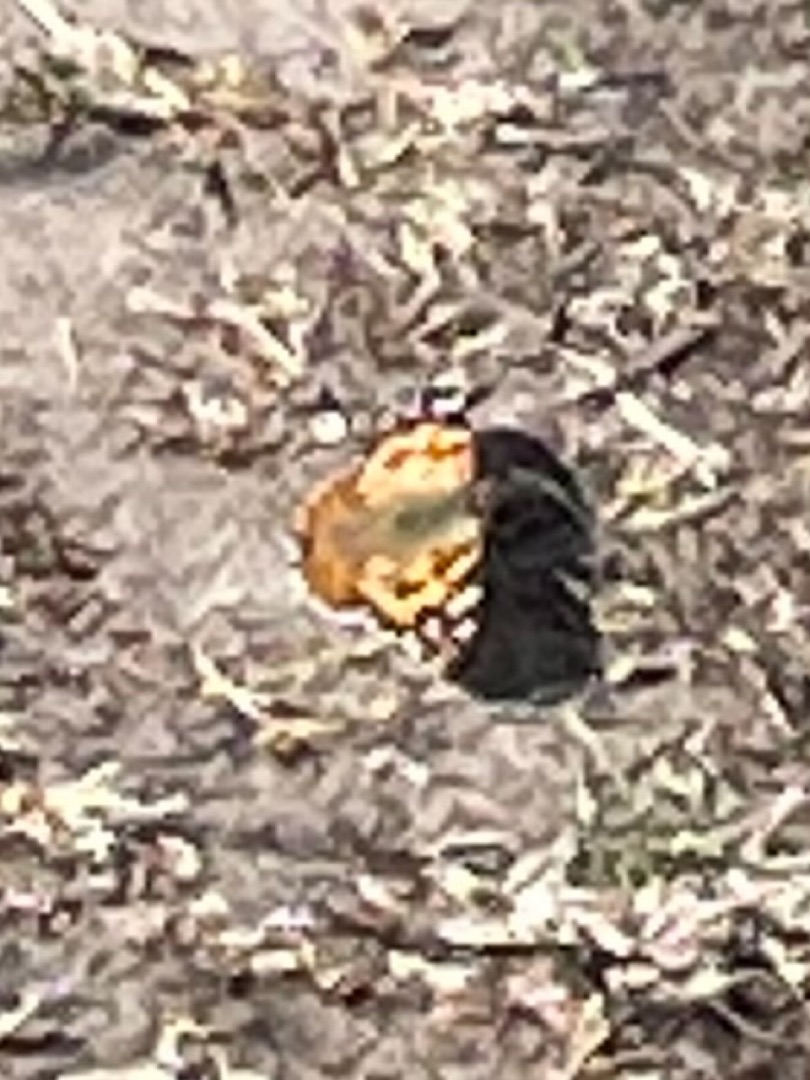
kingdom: Animalia
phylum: Arthropoda
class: Insecta
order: Lepidoptera
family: Nymphalidae
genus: Vanessa
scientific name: Vanessa cardui
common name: Tidselsommerfugl
